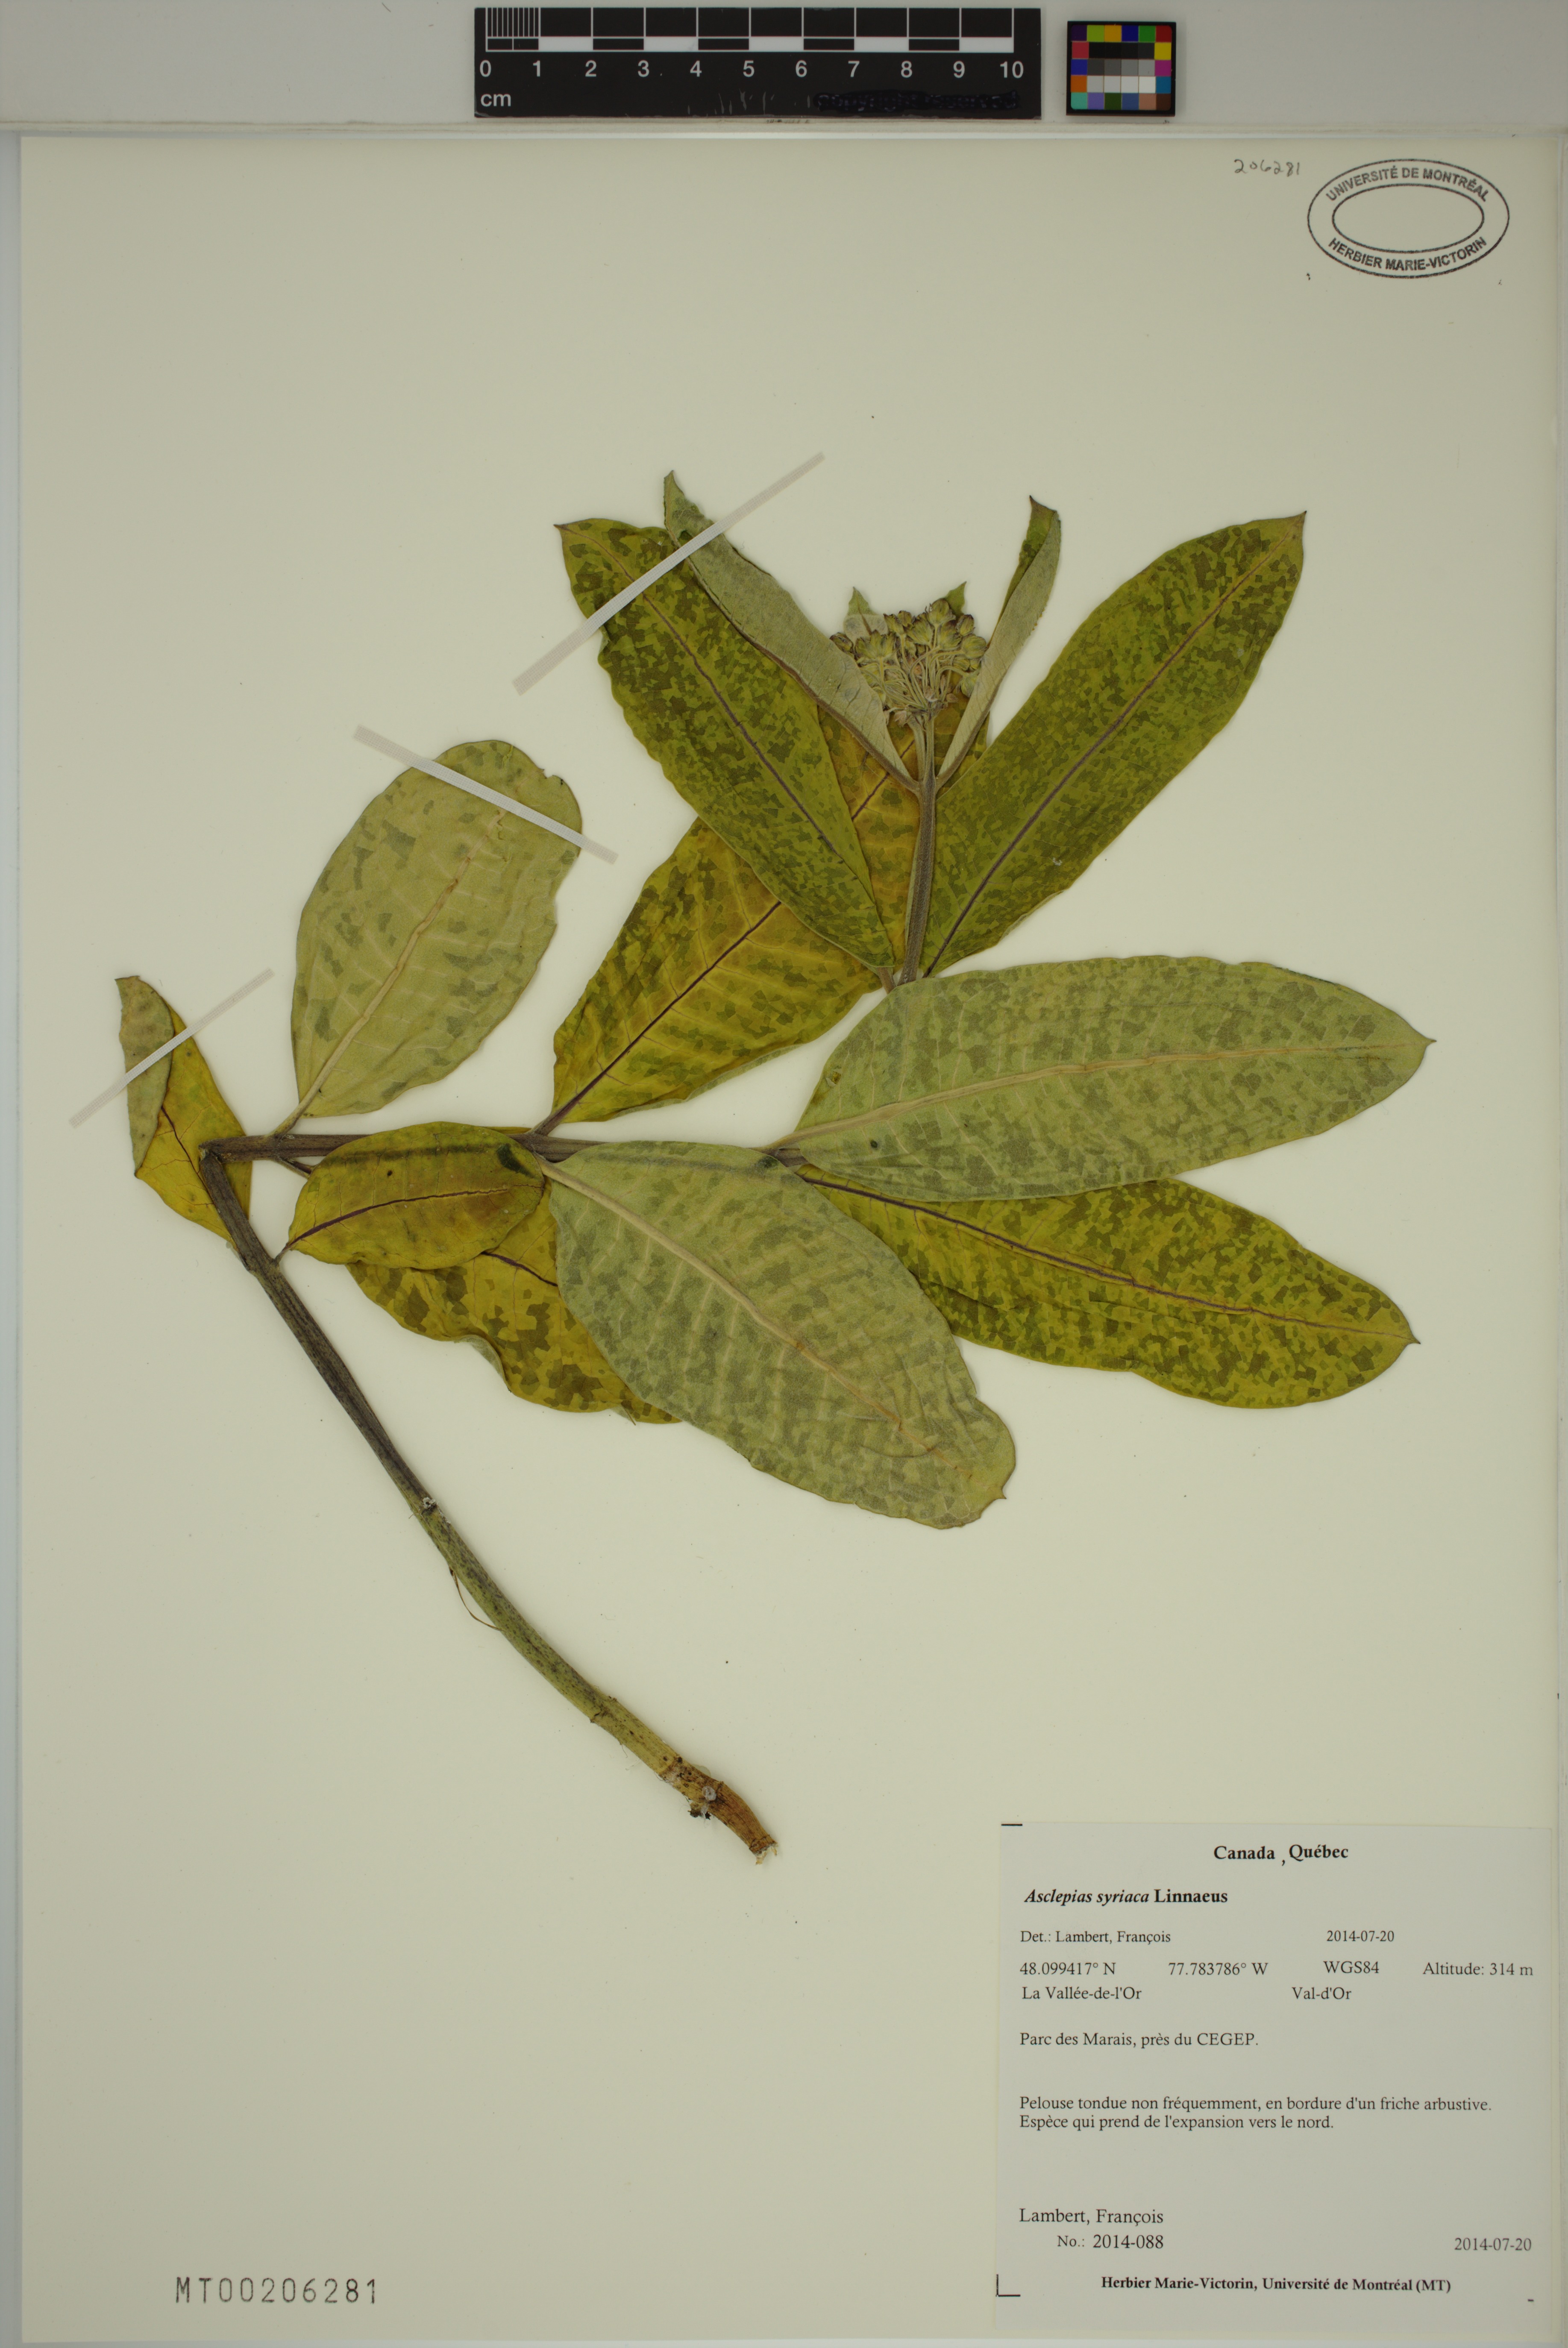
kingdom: Plantae
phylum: Tracheophyta
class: Magnoliopsida
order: Gentianales
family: Apocynaceae
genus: Asclepias
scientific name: Asclepias syriaca
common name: Common milkweed
